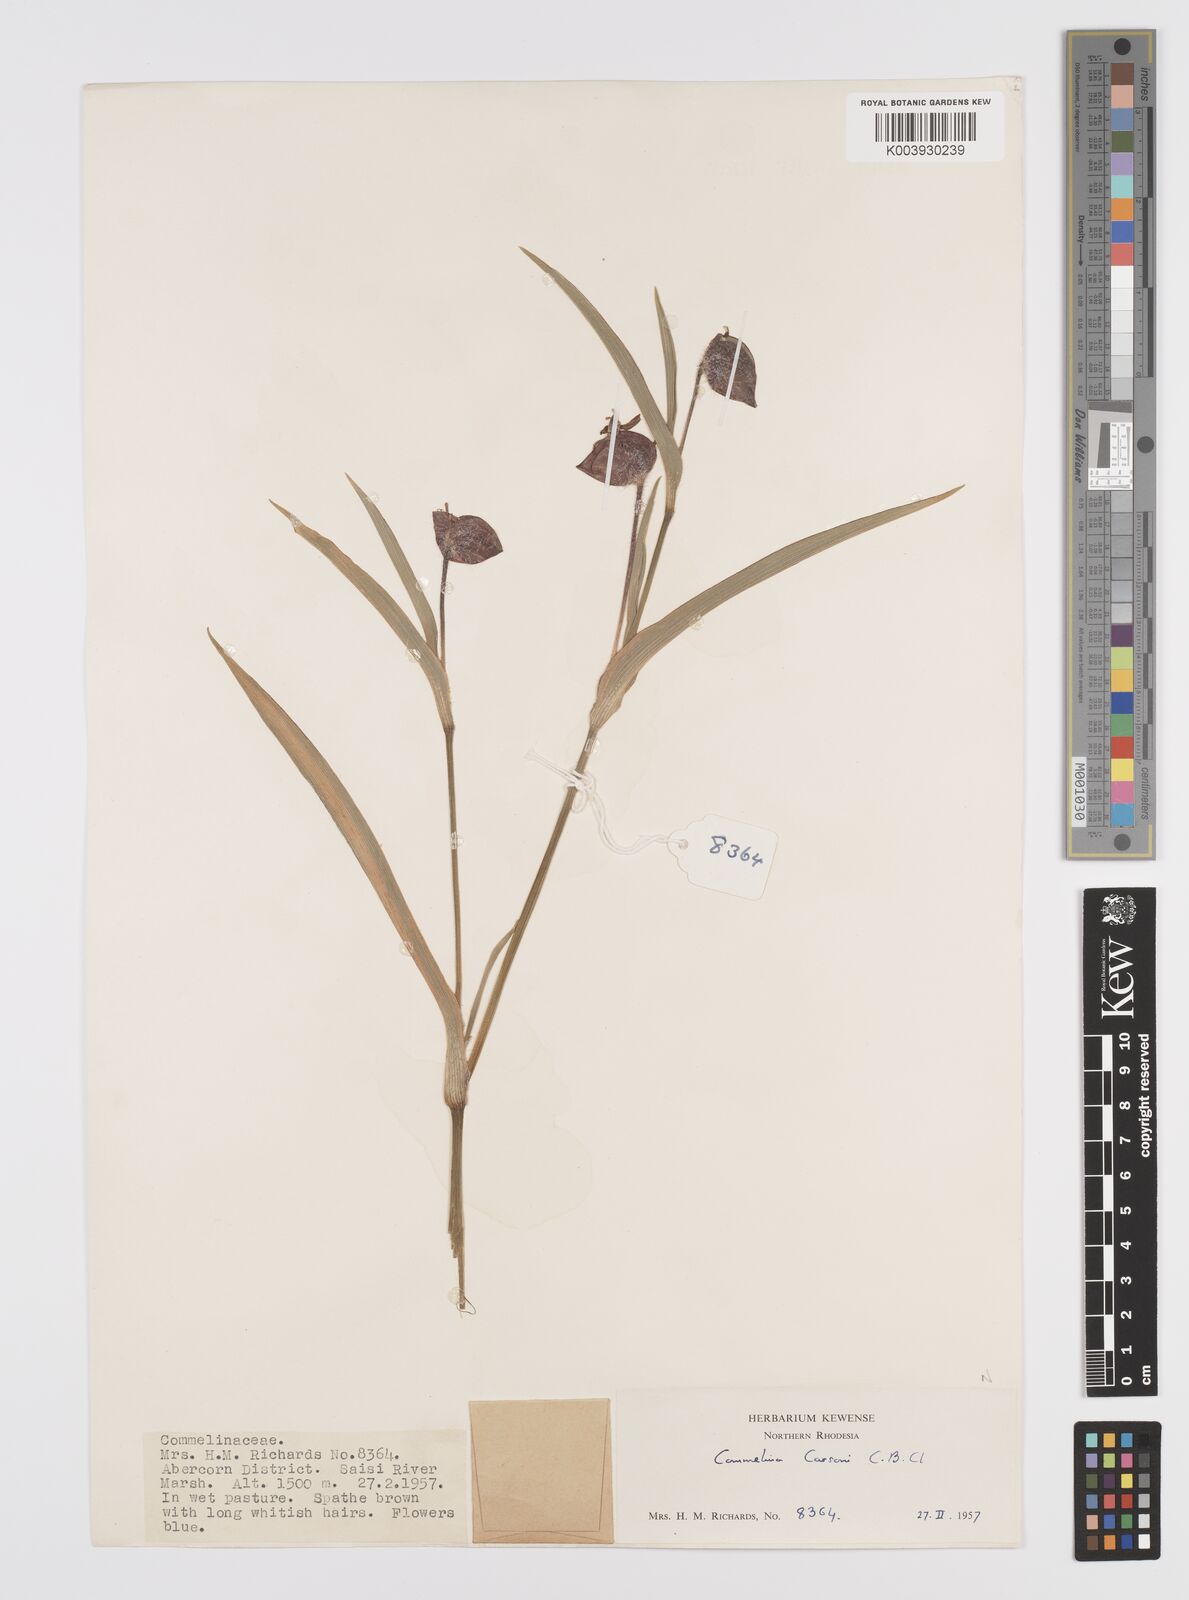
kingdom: Plantae
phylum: Tracheophyta
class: Liliopsida
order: Commelinales
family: Commelinaceae
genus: Commelina
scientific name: Commelina schweinfurthii
